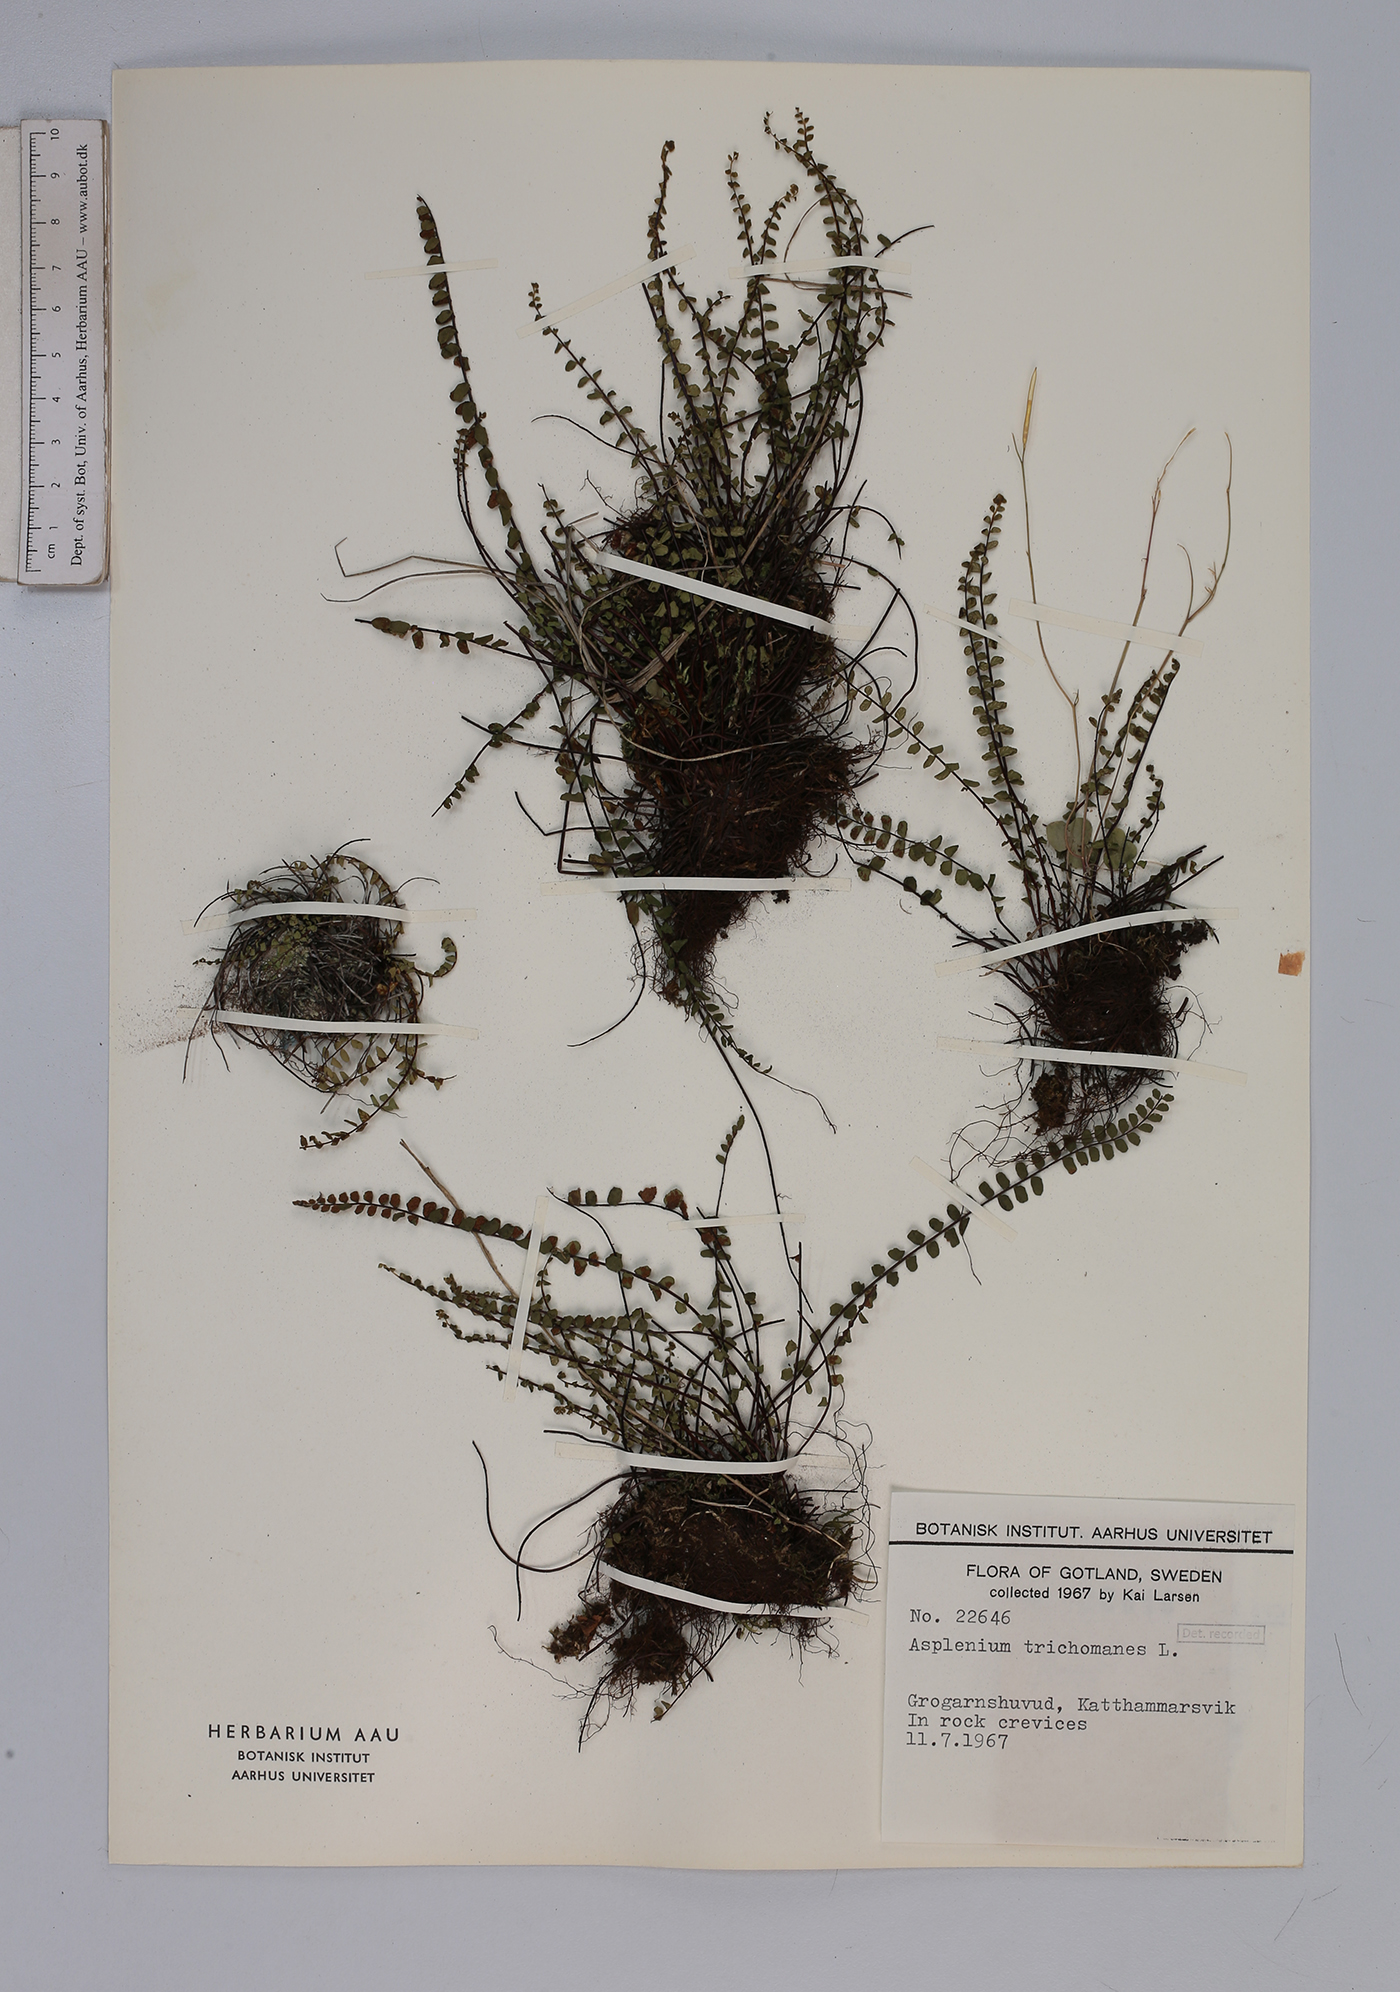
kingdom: Plantae
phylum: Tracheophyta
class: Polypodiopsida
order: Polypodiales
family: Aspleniaceae
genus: Asplenium
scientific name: Asplenium trichomanes
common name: Maidenhair spleenwort
